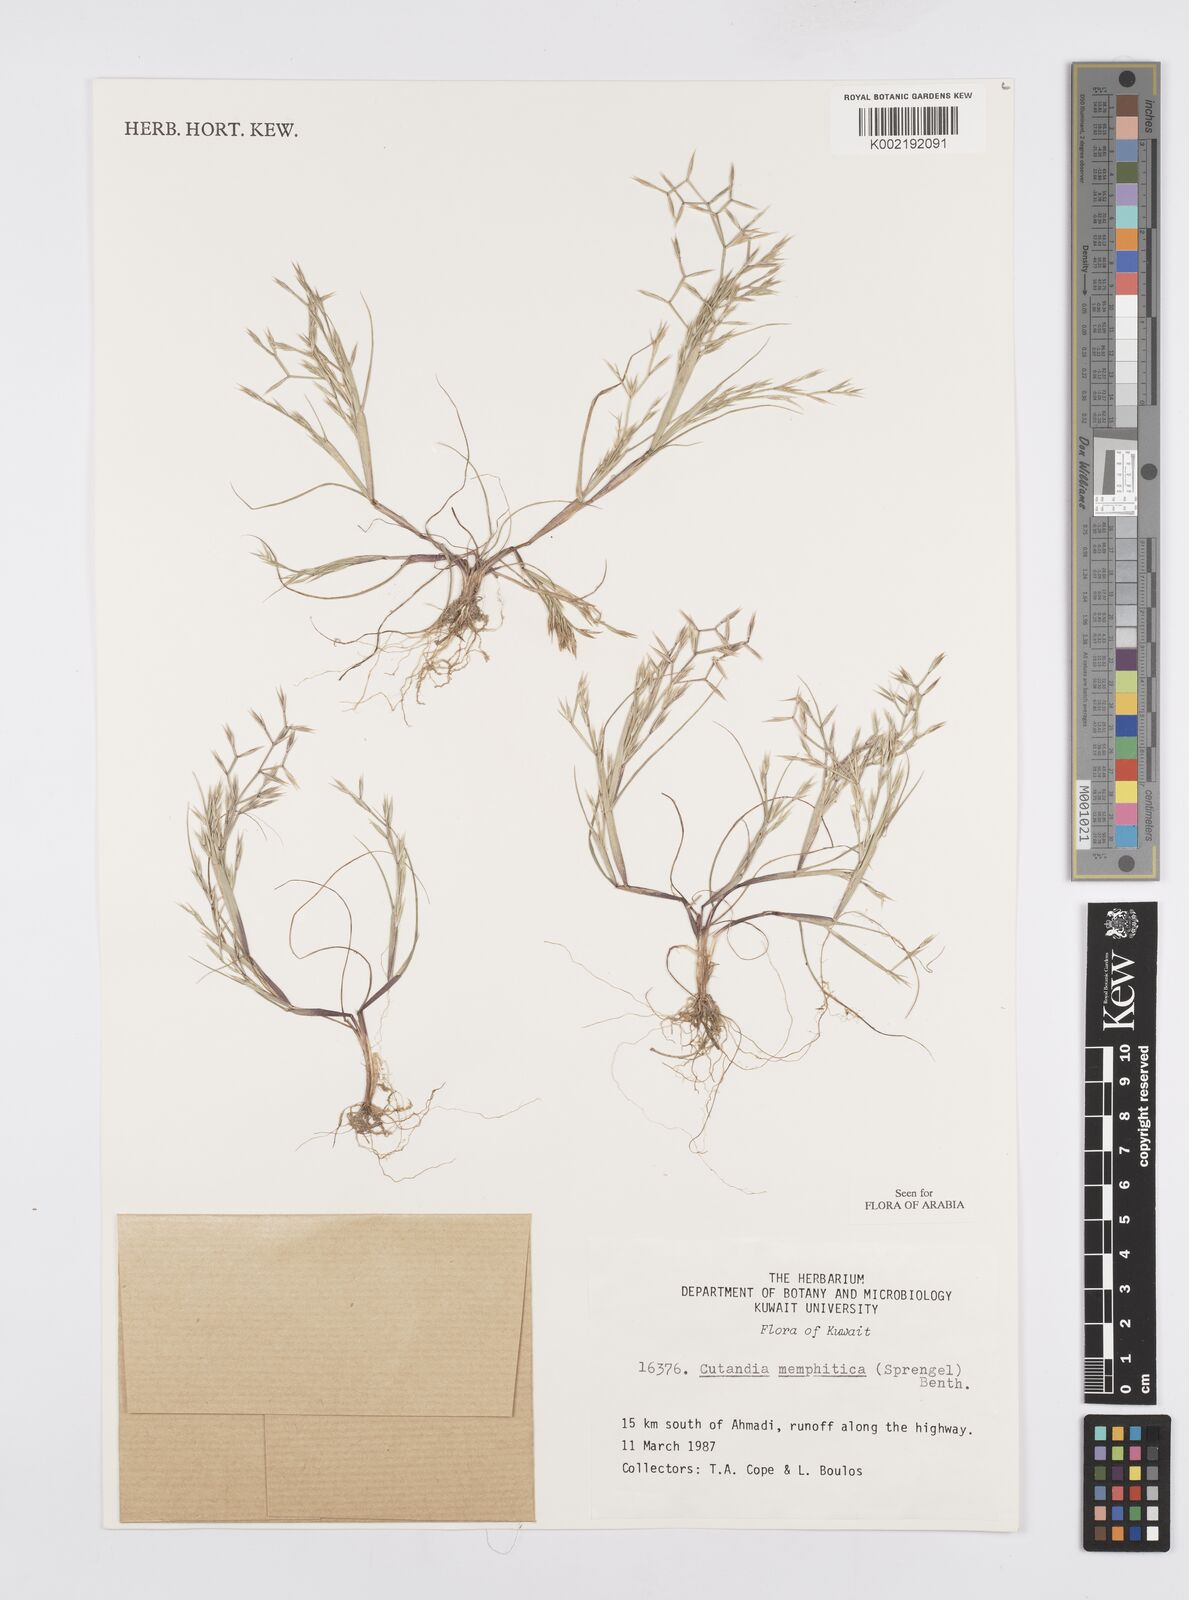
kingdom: Plantae
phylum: Tracheophyta
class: Liliopsida
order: Poales
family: Poaceae
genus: Cutandia
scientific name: Cutandia memphitica
